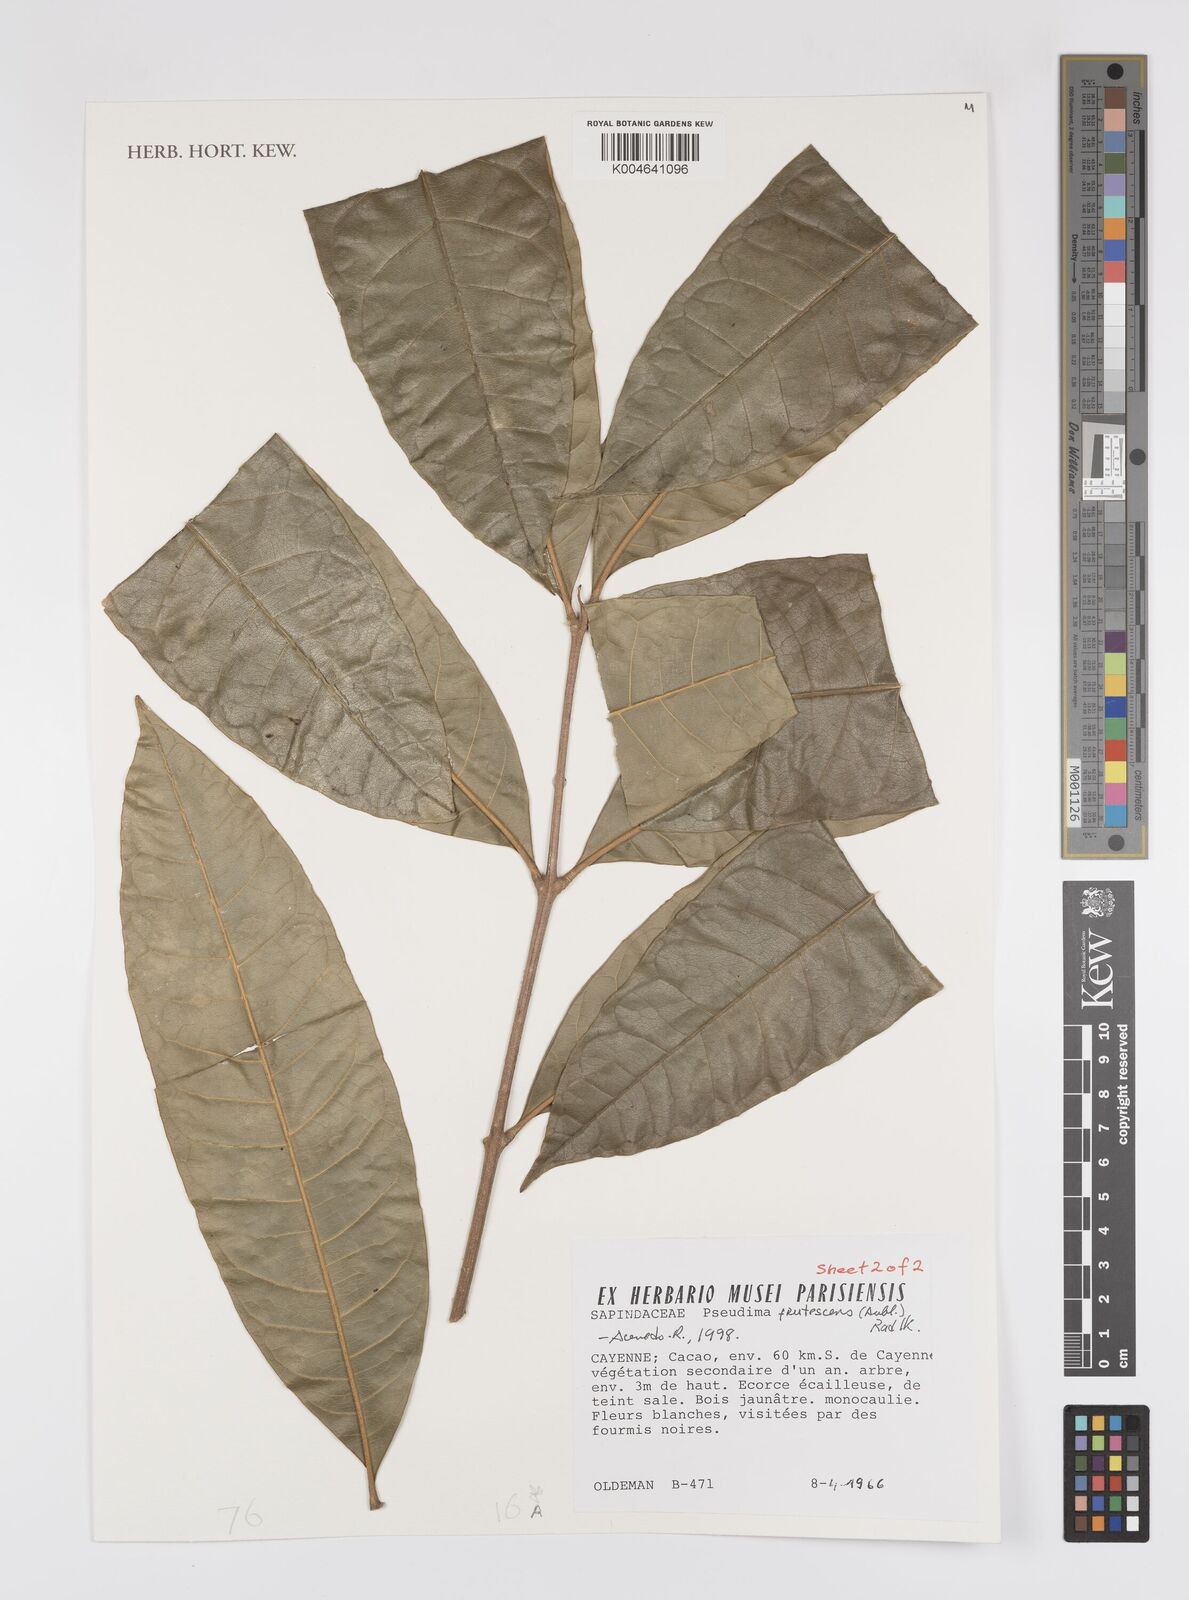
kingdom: Plantae
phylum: Tracheophyta
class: Magnoliopsida
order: Sapindales
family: Sapindaceae
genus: Pseudima
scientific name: Pseudima frutescens
